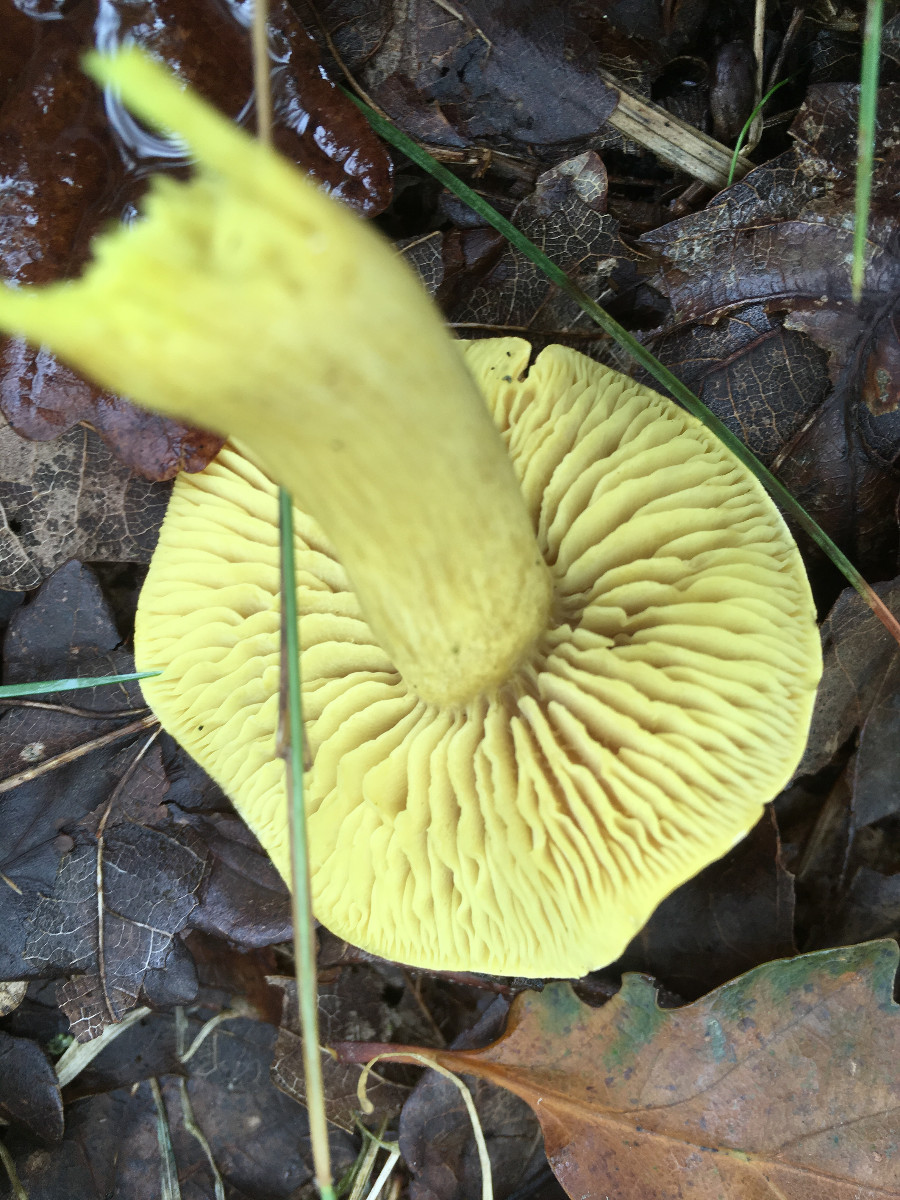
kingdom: Fungi
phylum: Basidiomycota
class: Agaricomycetes
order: Agaricales
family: Tricholomataceae
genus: Tricholoma
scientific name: Tricholoma sulphureum
